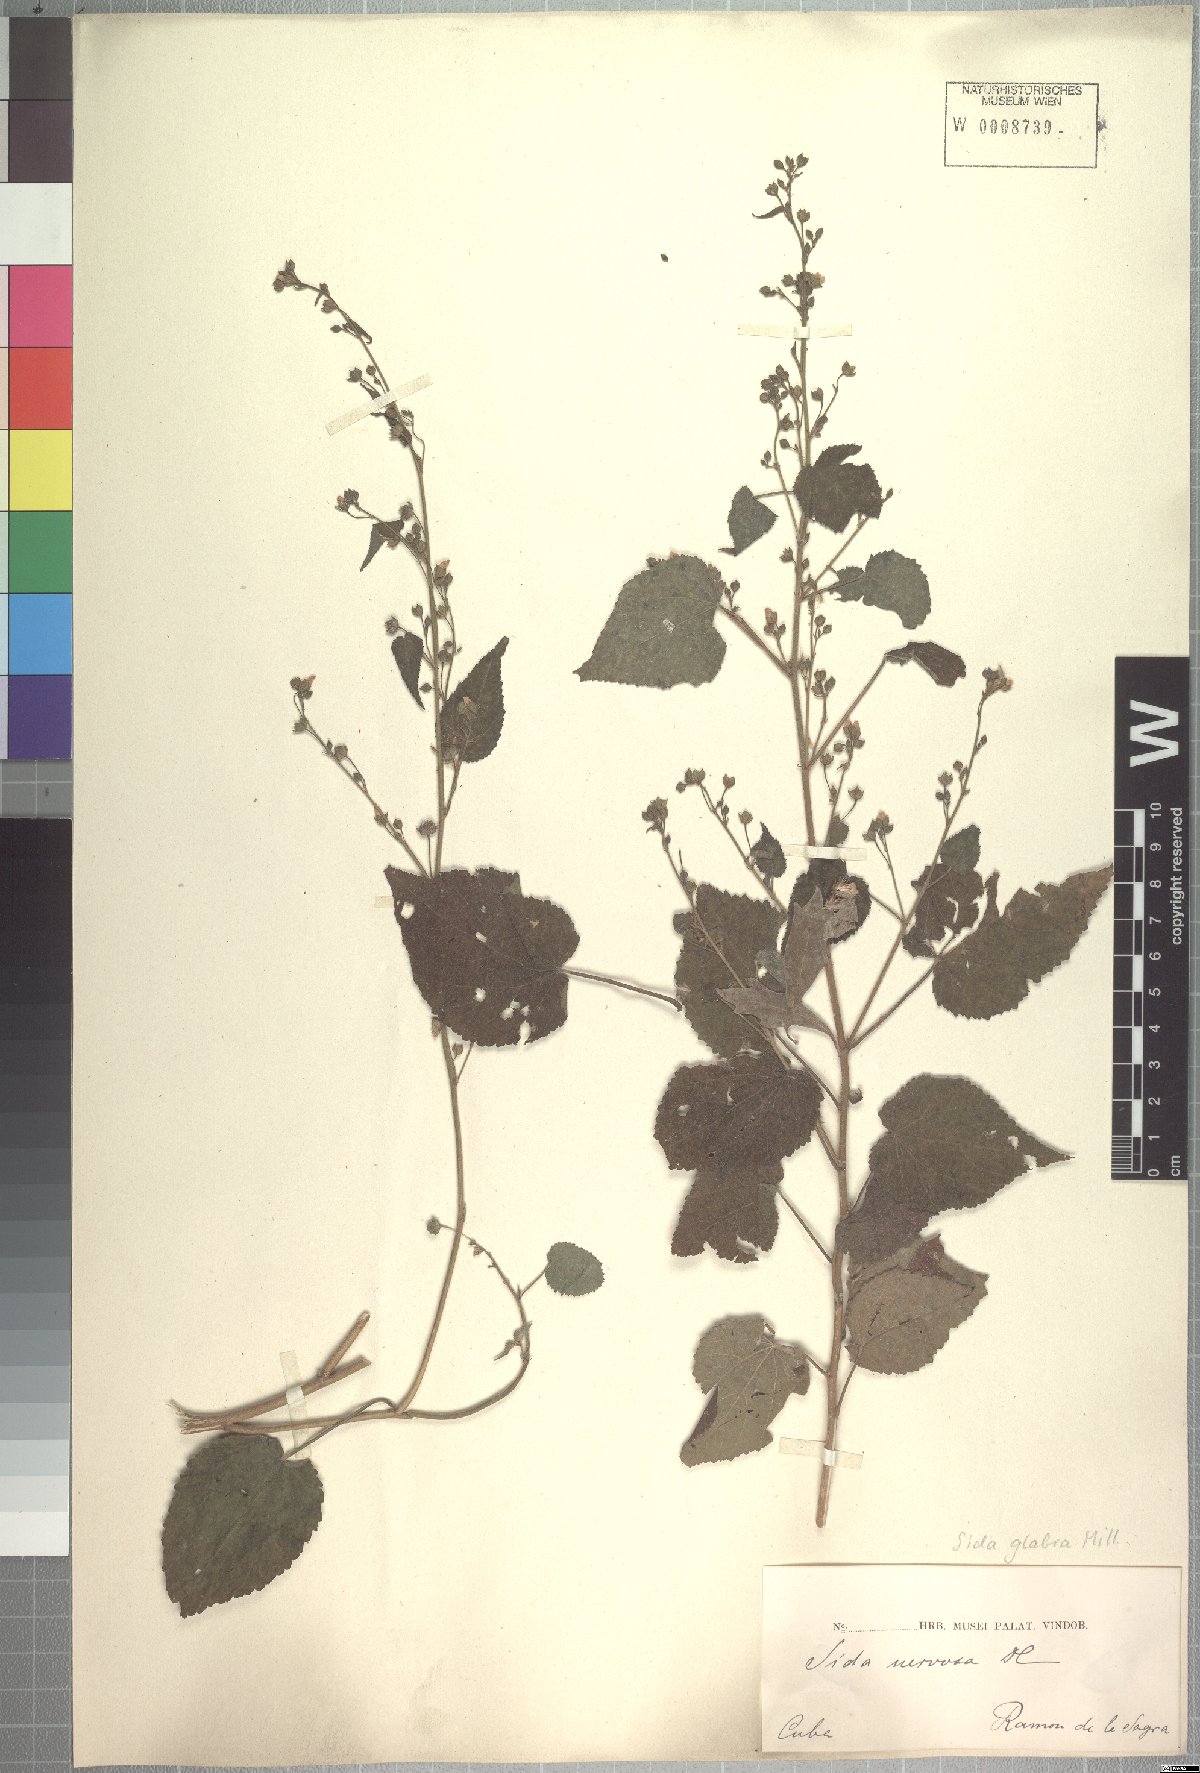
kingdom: Plantae
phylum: Tracheophyta
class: Magnoliopsida
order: Malvales
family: Malvaceae
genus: Sida
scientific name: Sida glabra
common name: Smooth fanpetals
